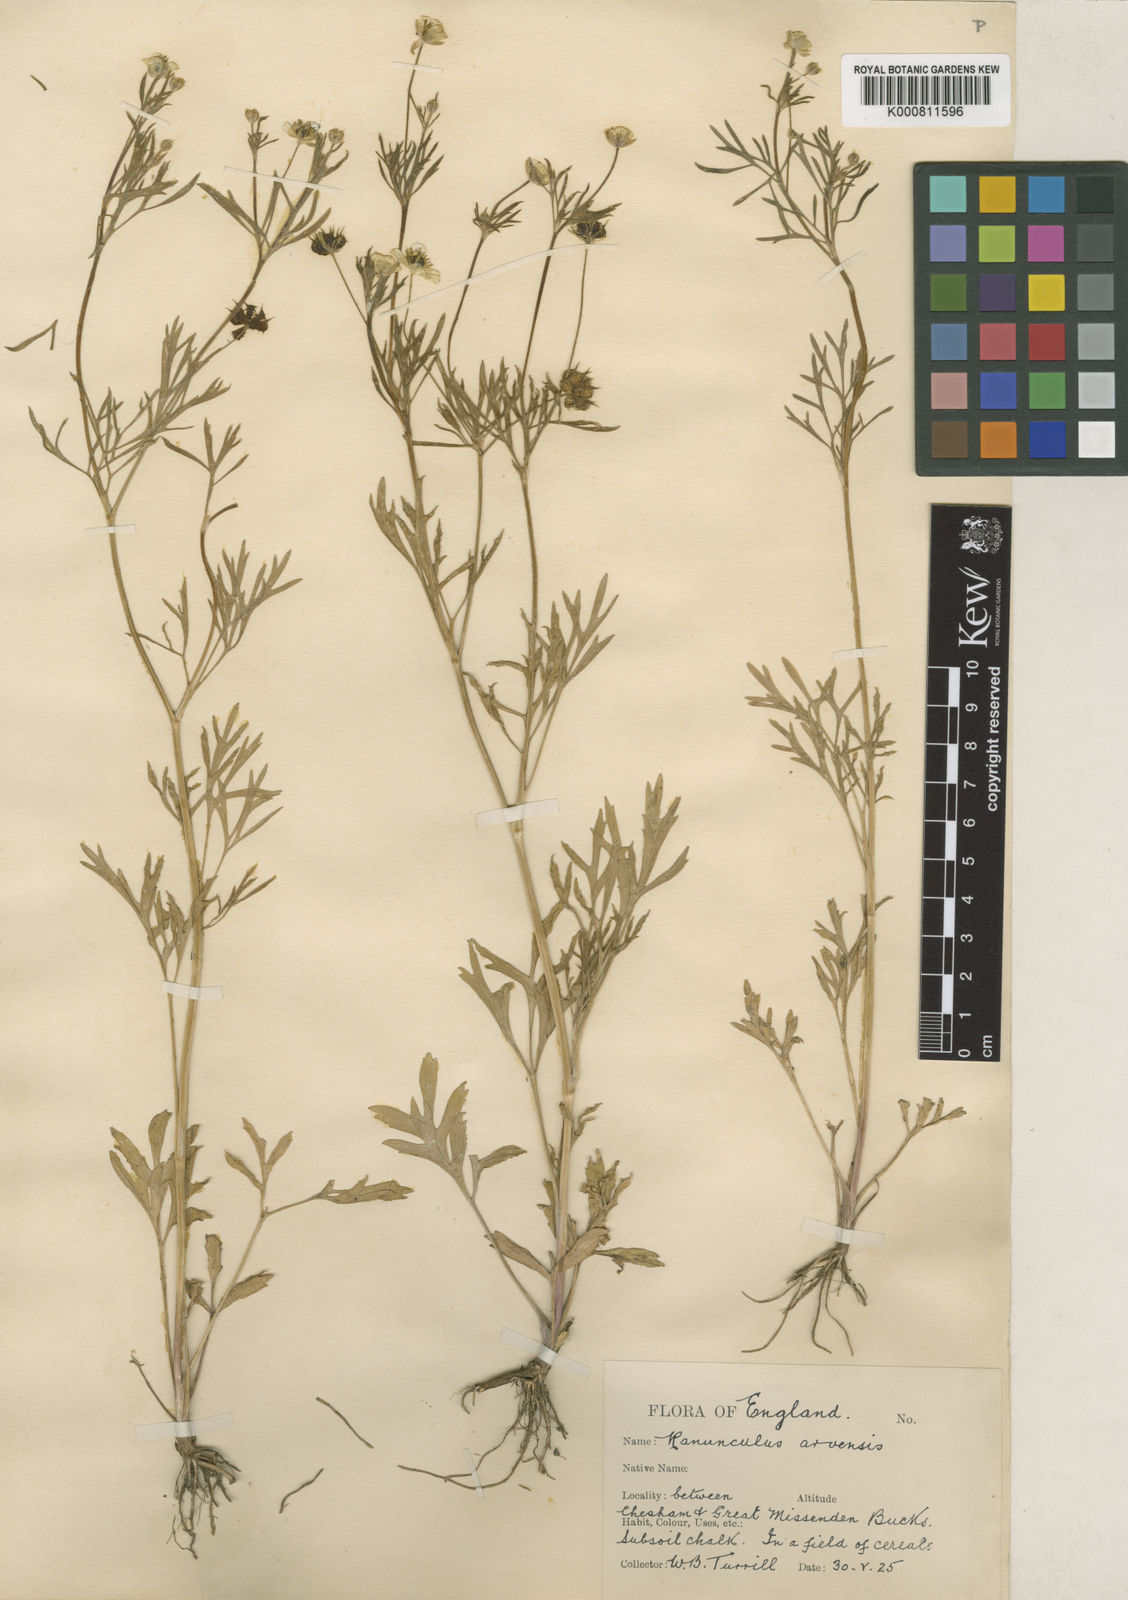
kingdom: Plantae
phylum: Tracheophyta
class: Magnoliopsida
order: Ranunculales
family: Ranunculaceae
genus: Ranunculus
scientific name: Ranunculus arvensis
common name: Corn buttercup
